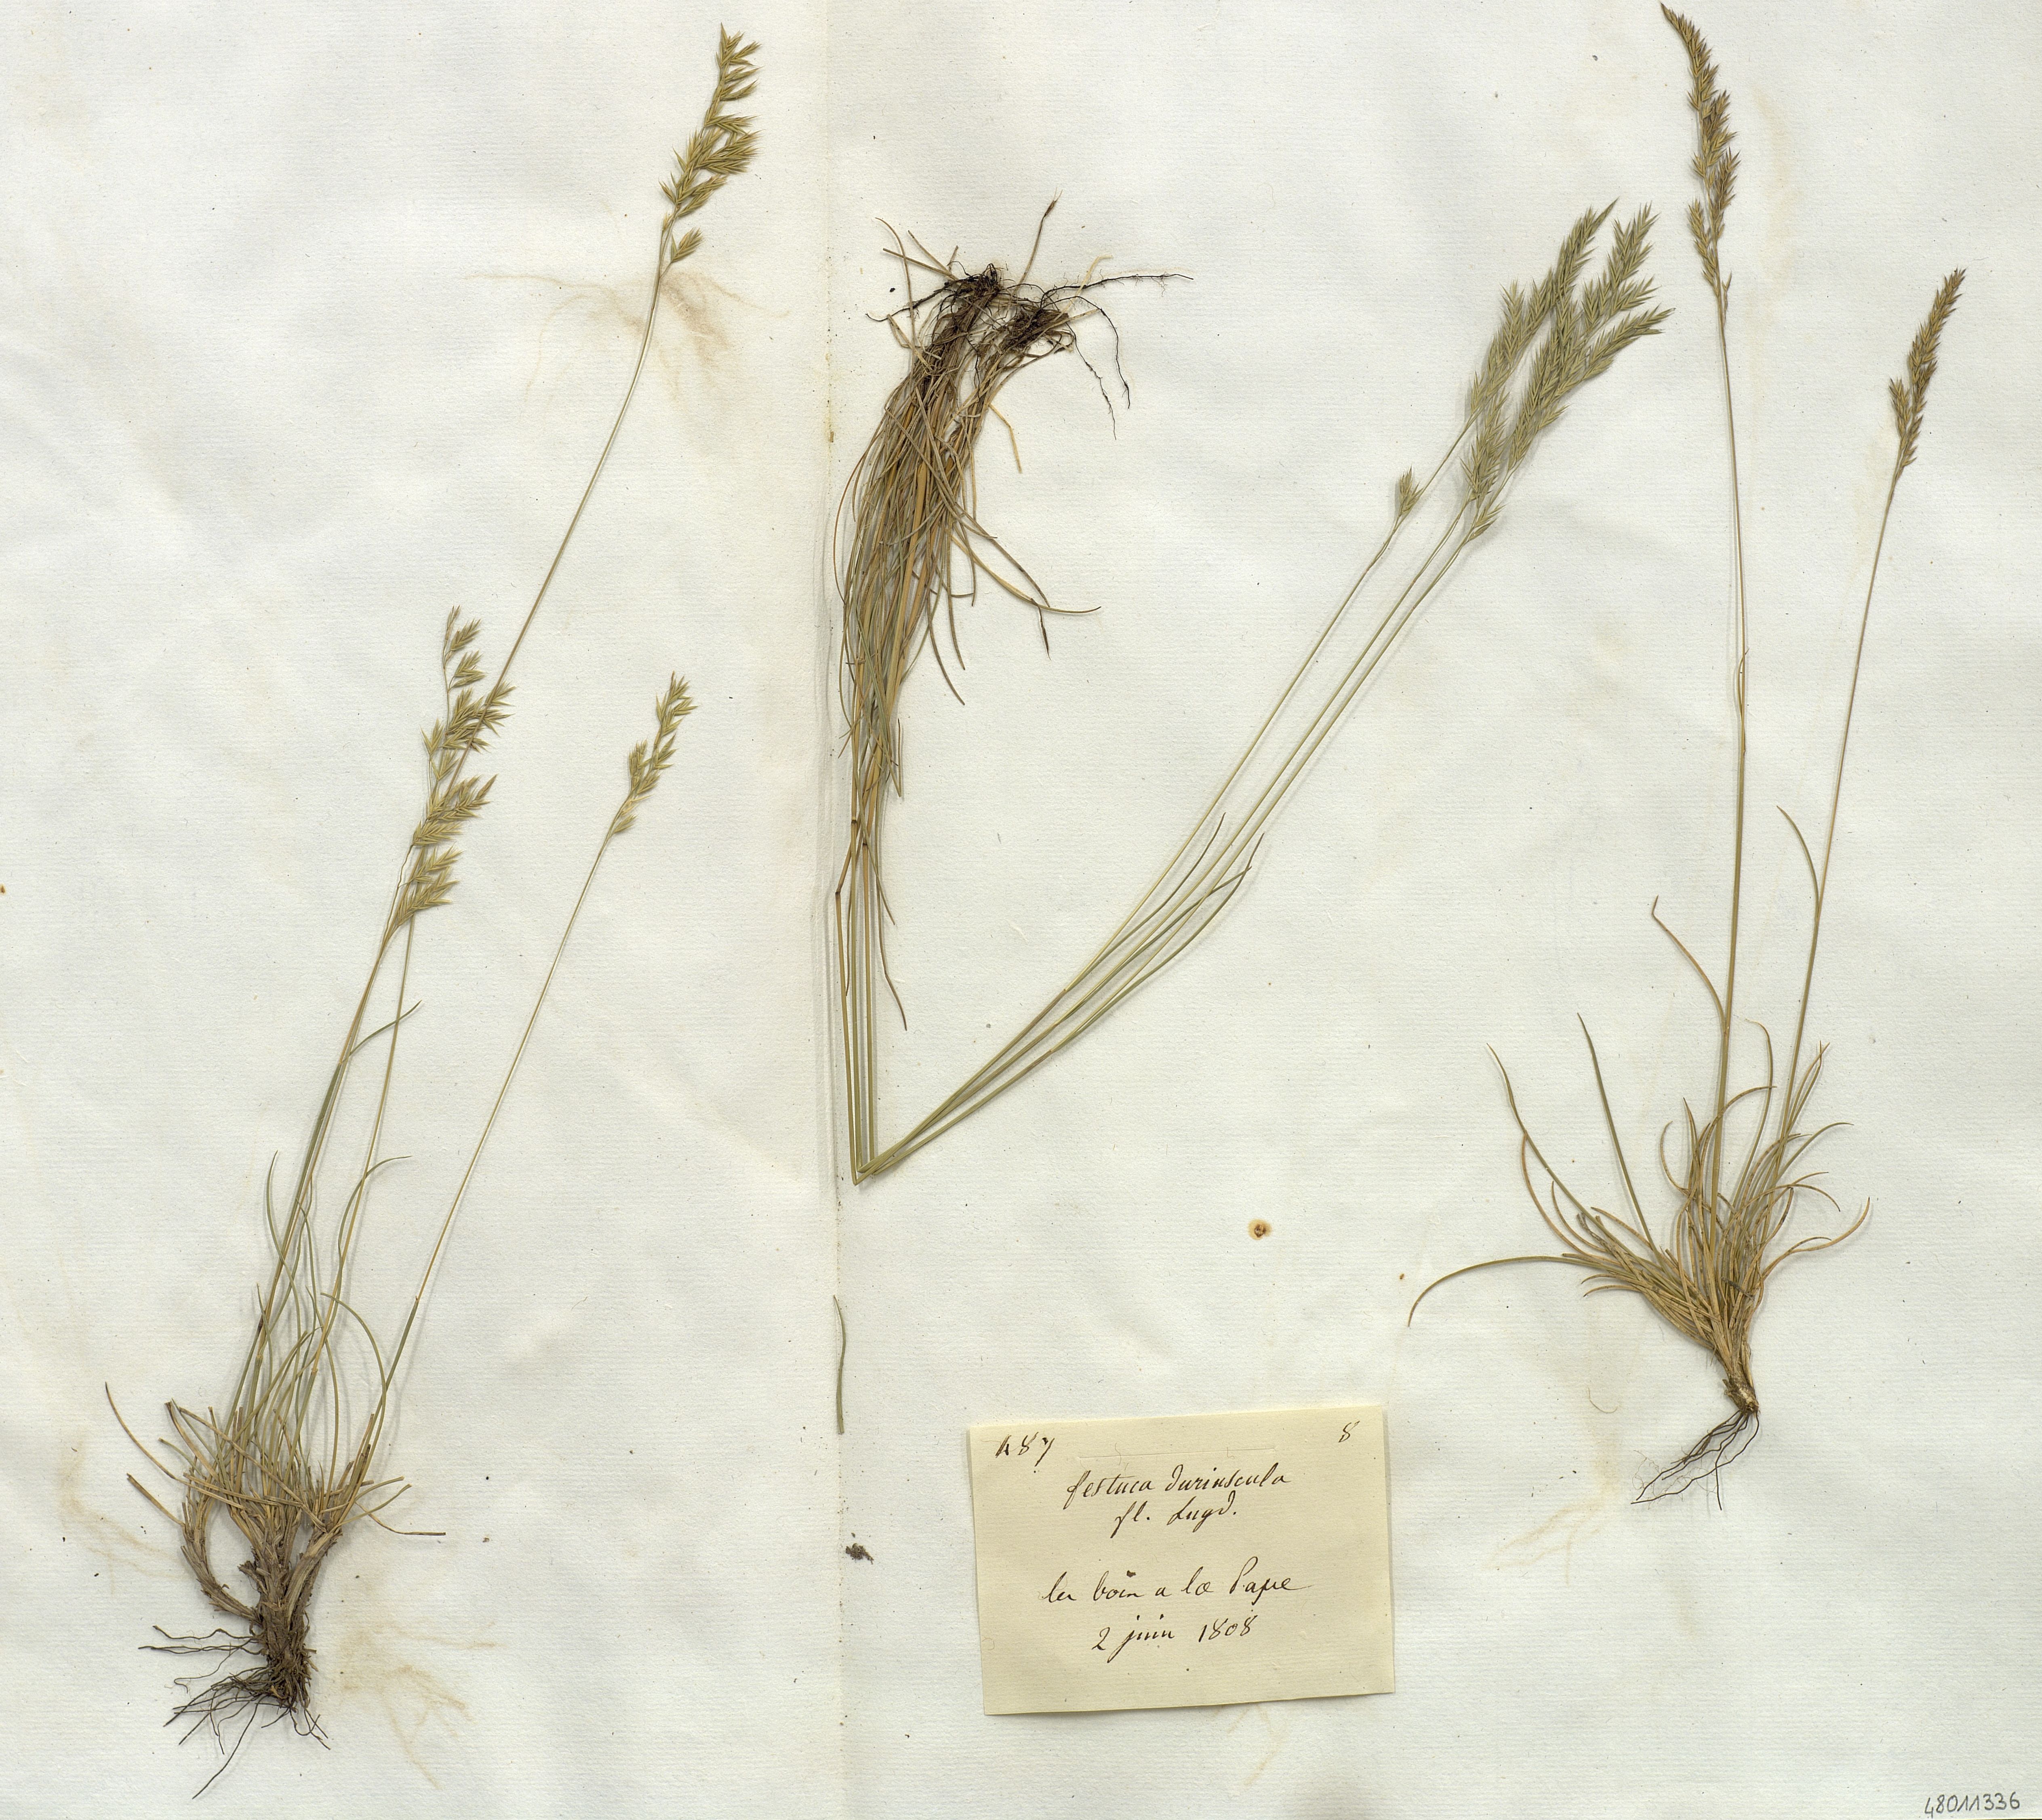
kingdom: Plantae
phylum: Tracheophyta
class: Liliopsida
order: Poales
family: Poaceae
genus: Festuca
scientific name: Festuca
